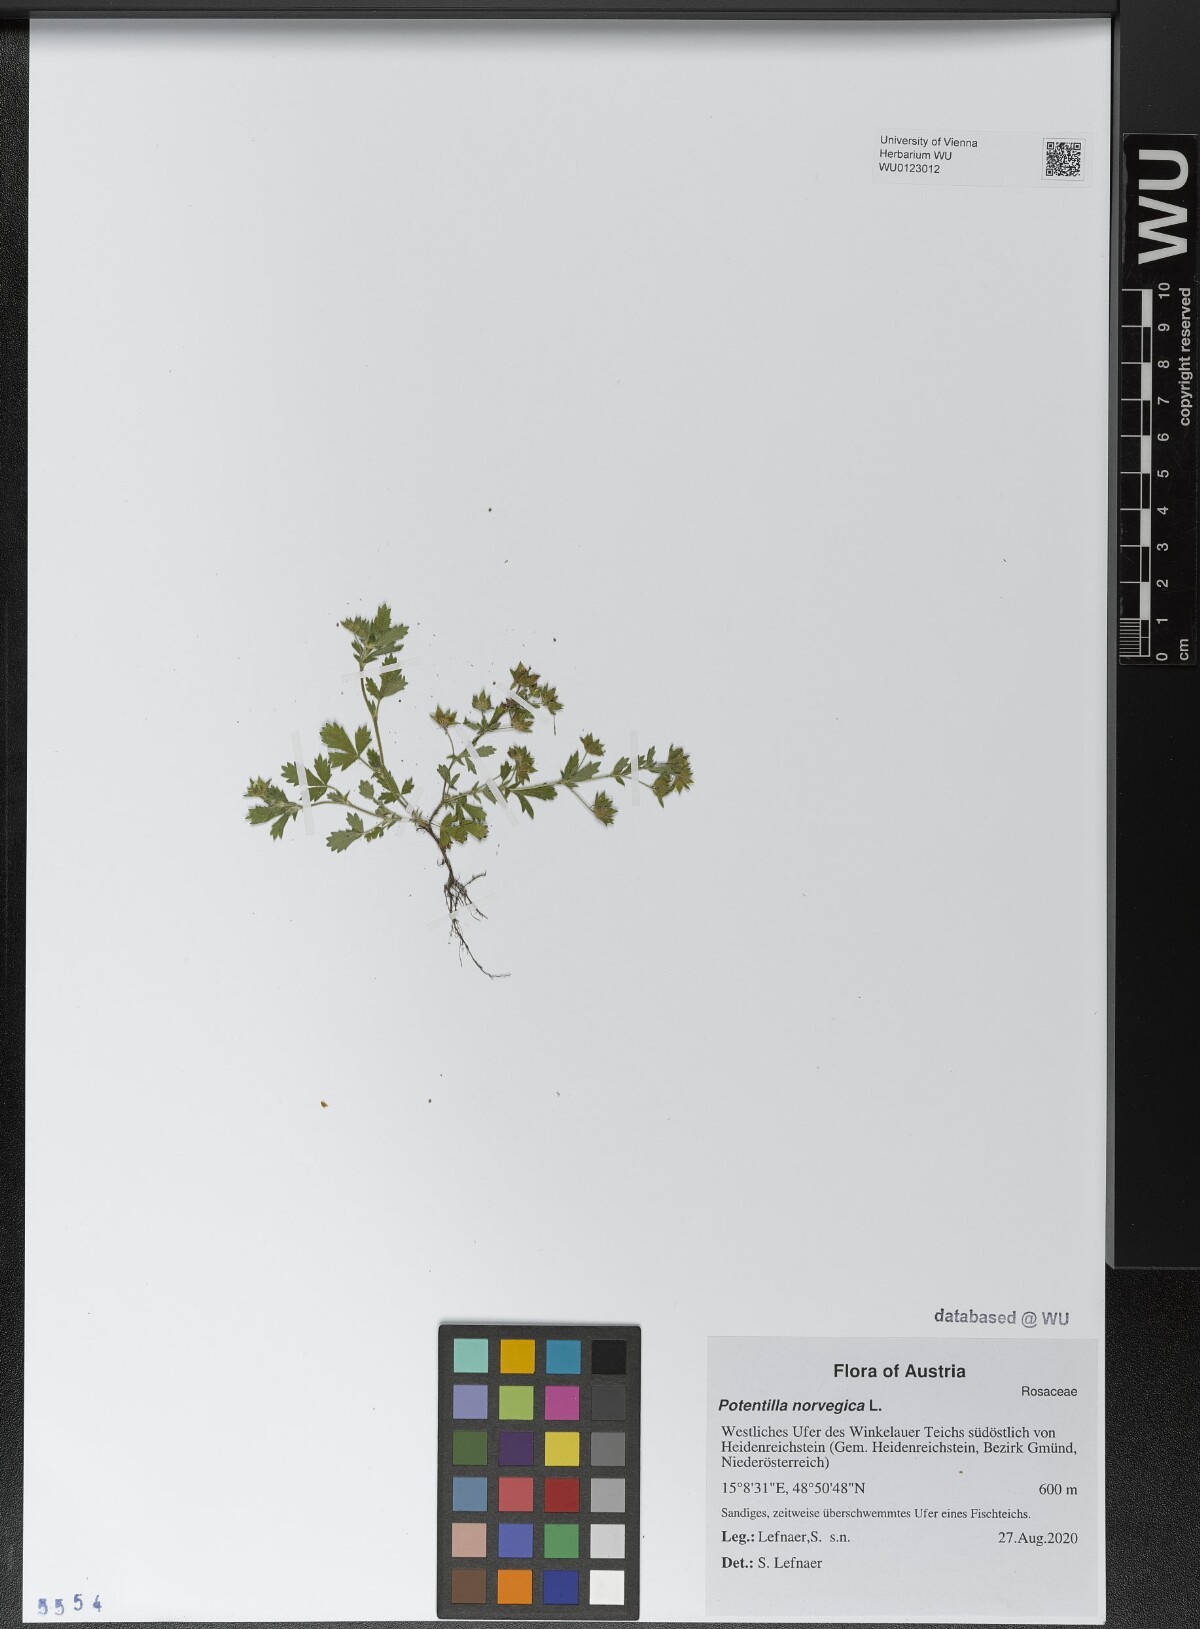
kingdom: Plantae
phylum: Tracheophyta
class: Magnoliopsida
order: Rosales
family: Rosaceae
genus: Potentilla
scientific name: Potentilla norvegica
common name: Ternate-leaved cinquefoil
